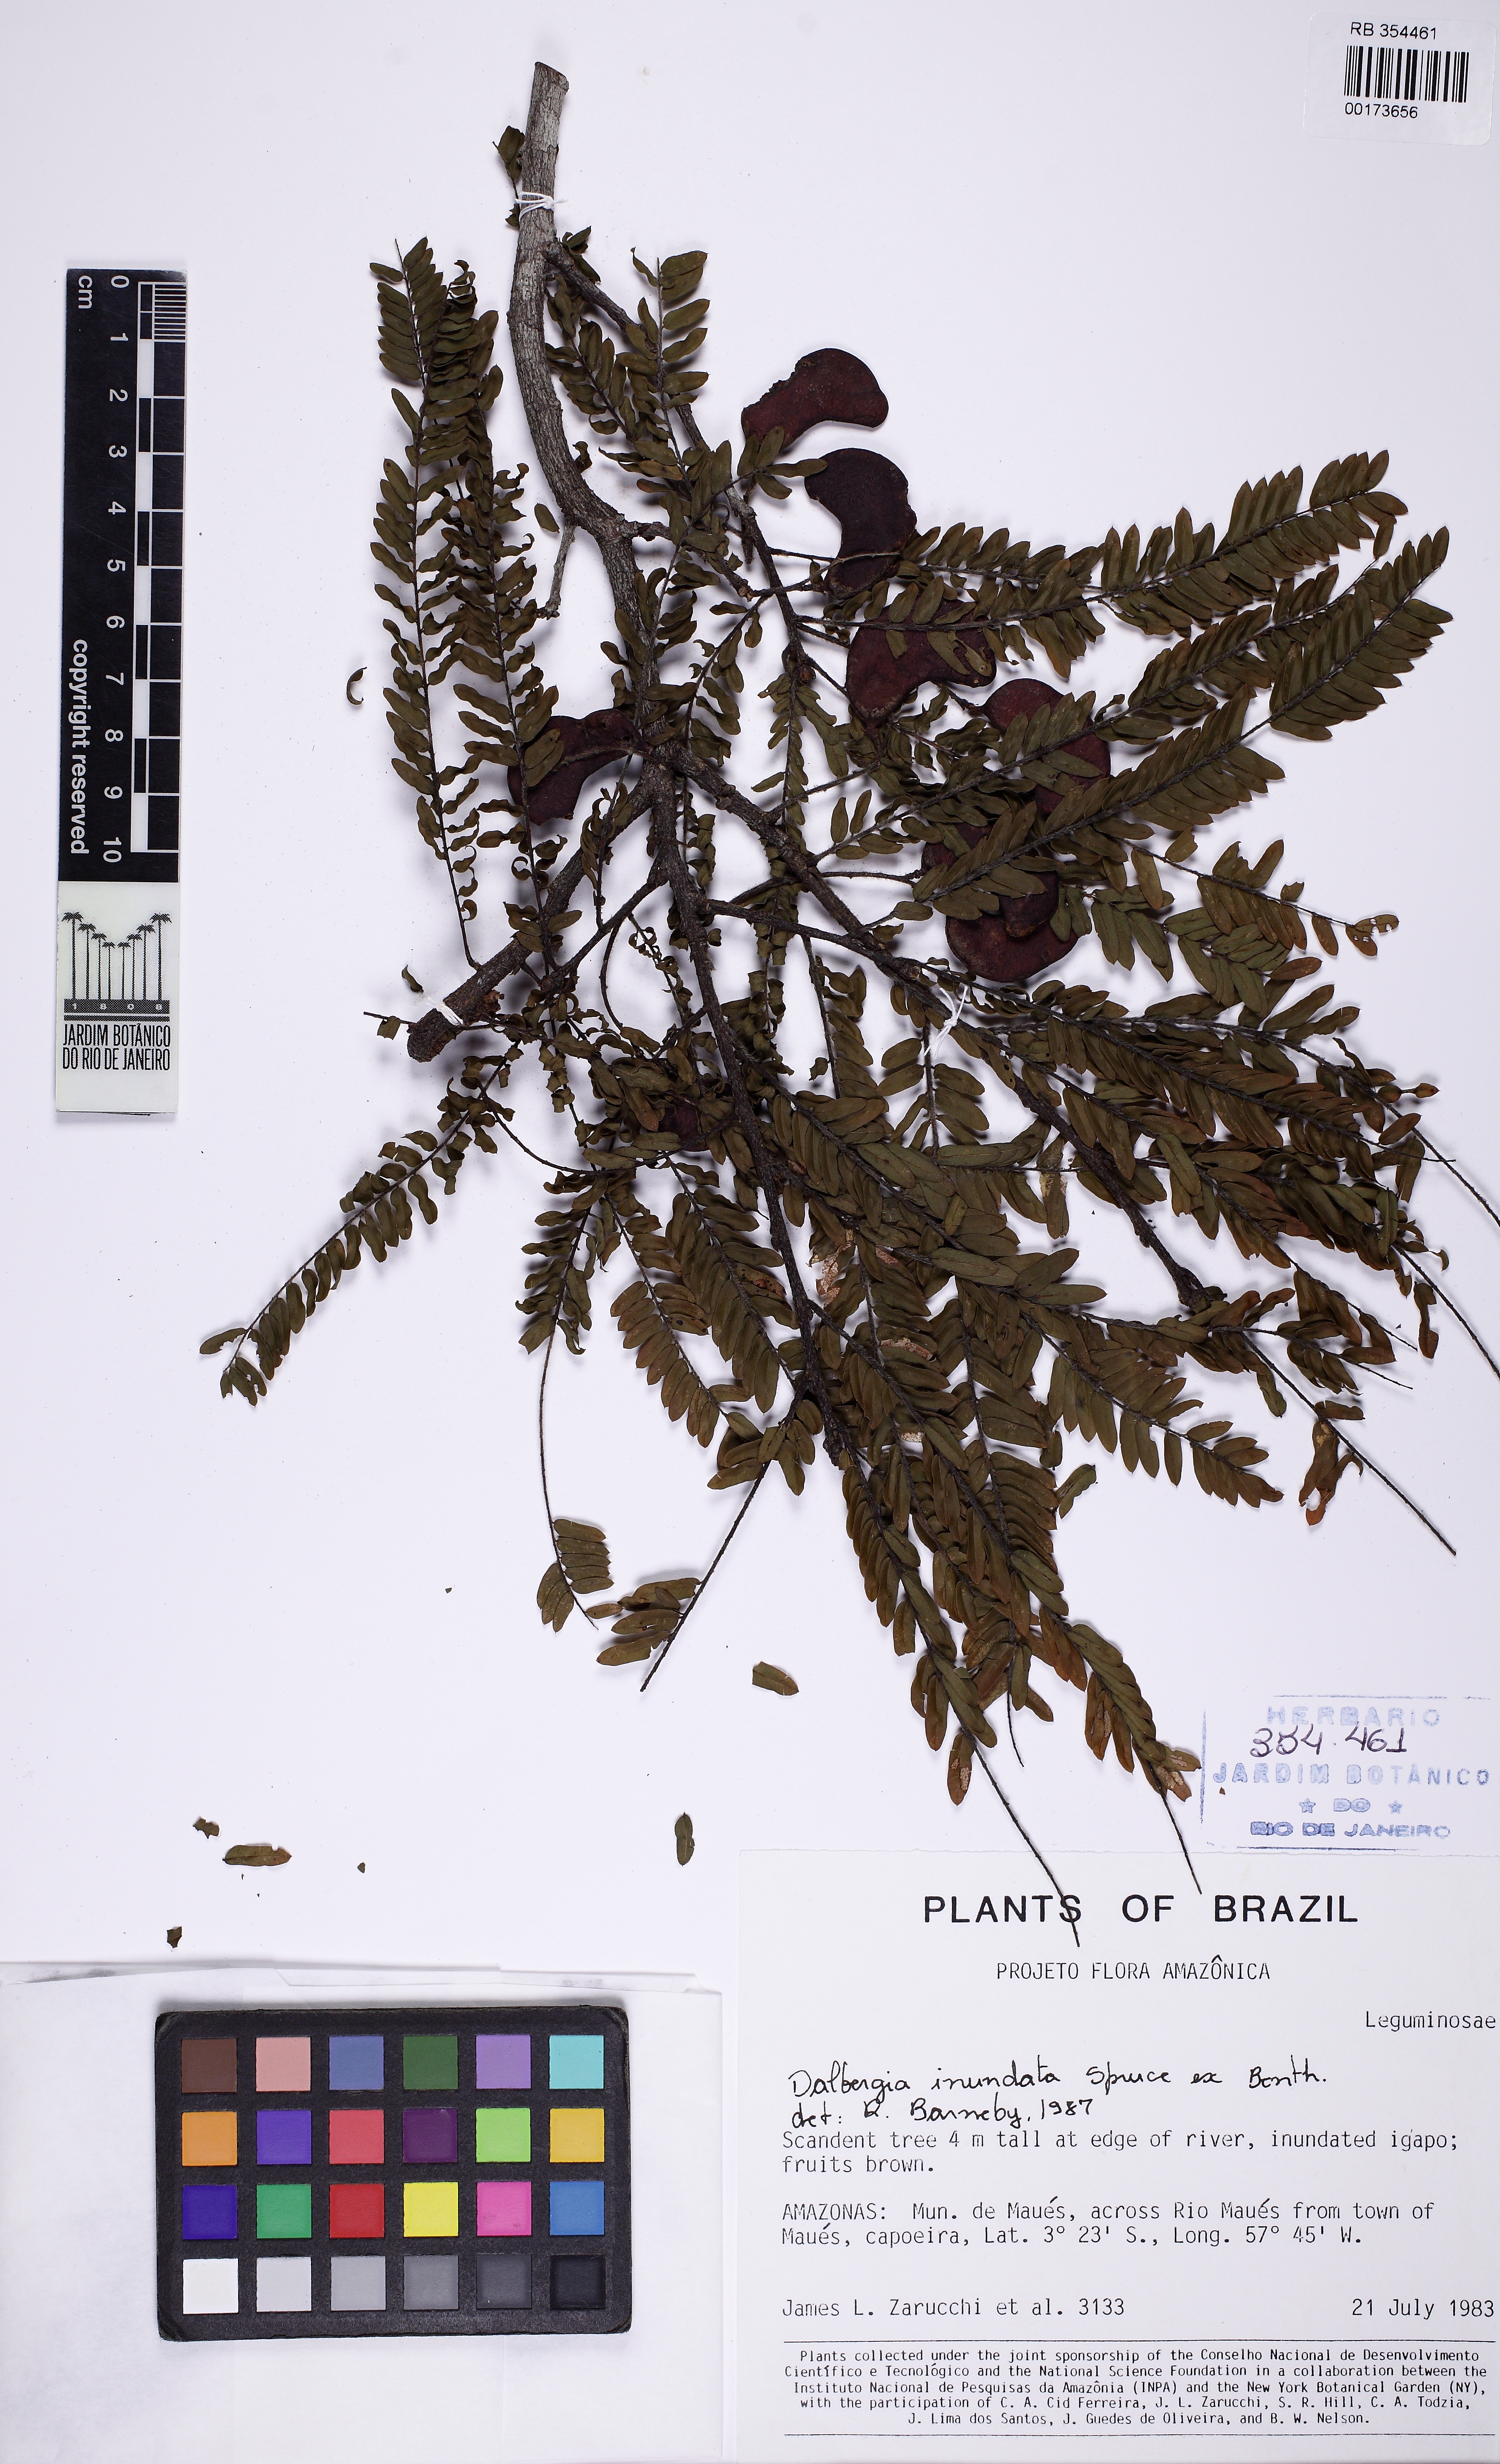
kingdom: Plantae
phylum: Tracheophyta
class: Magnoliopsida
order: Fabales
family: Fabaceae
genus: Dalbergia
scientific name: Dalbergia inundata
